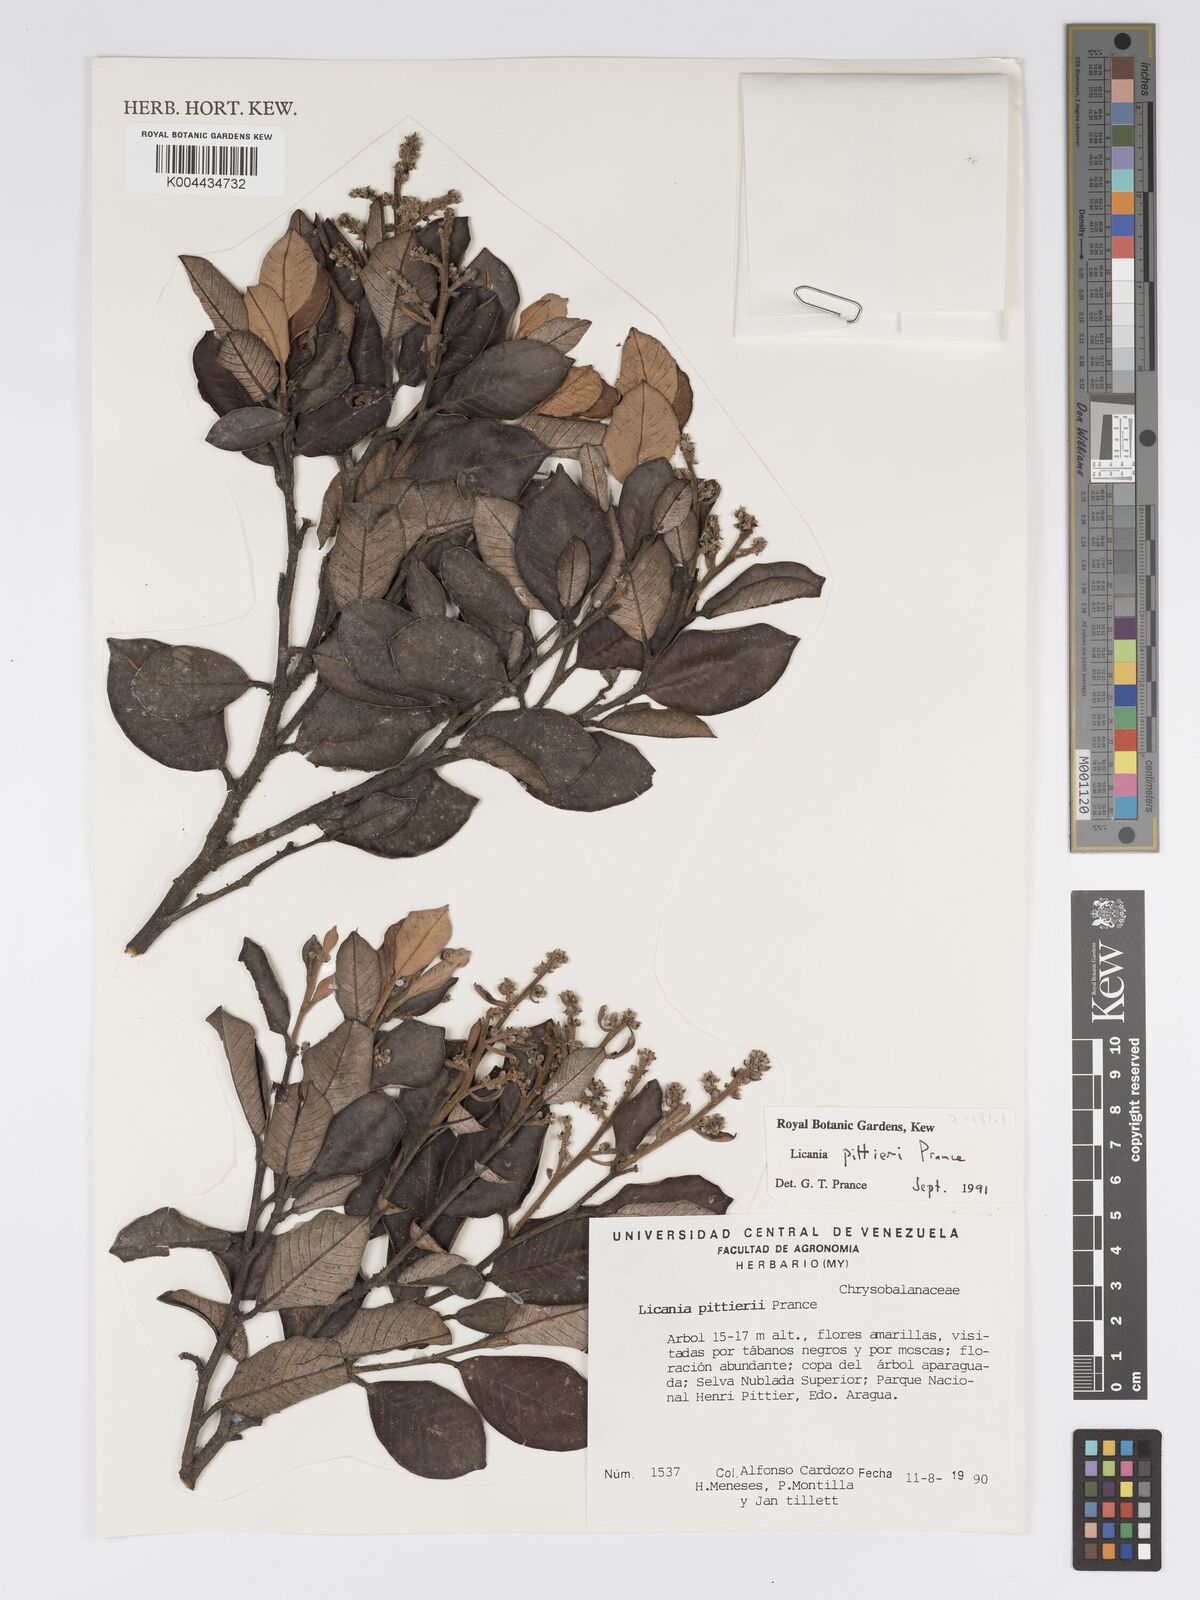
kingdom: Plantae
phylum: Tracheophyta
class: Magnoliopsida
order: Malpighiales
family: Chrysobalanaceae
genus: Licania
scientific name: Licania pittieri
